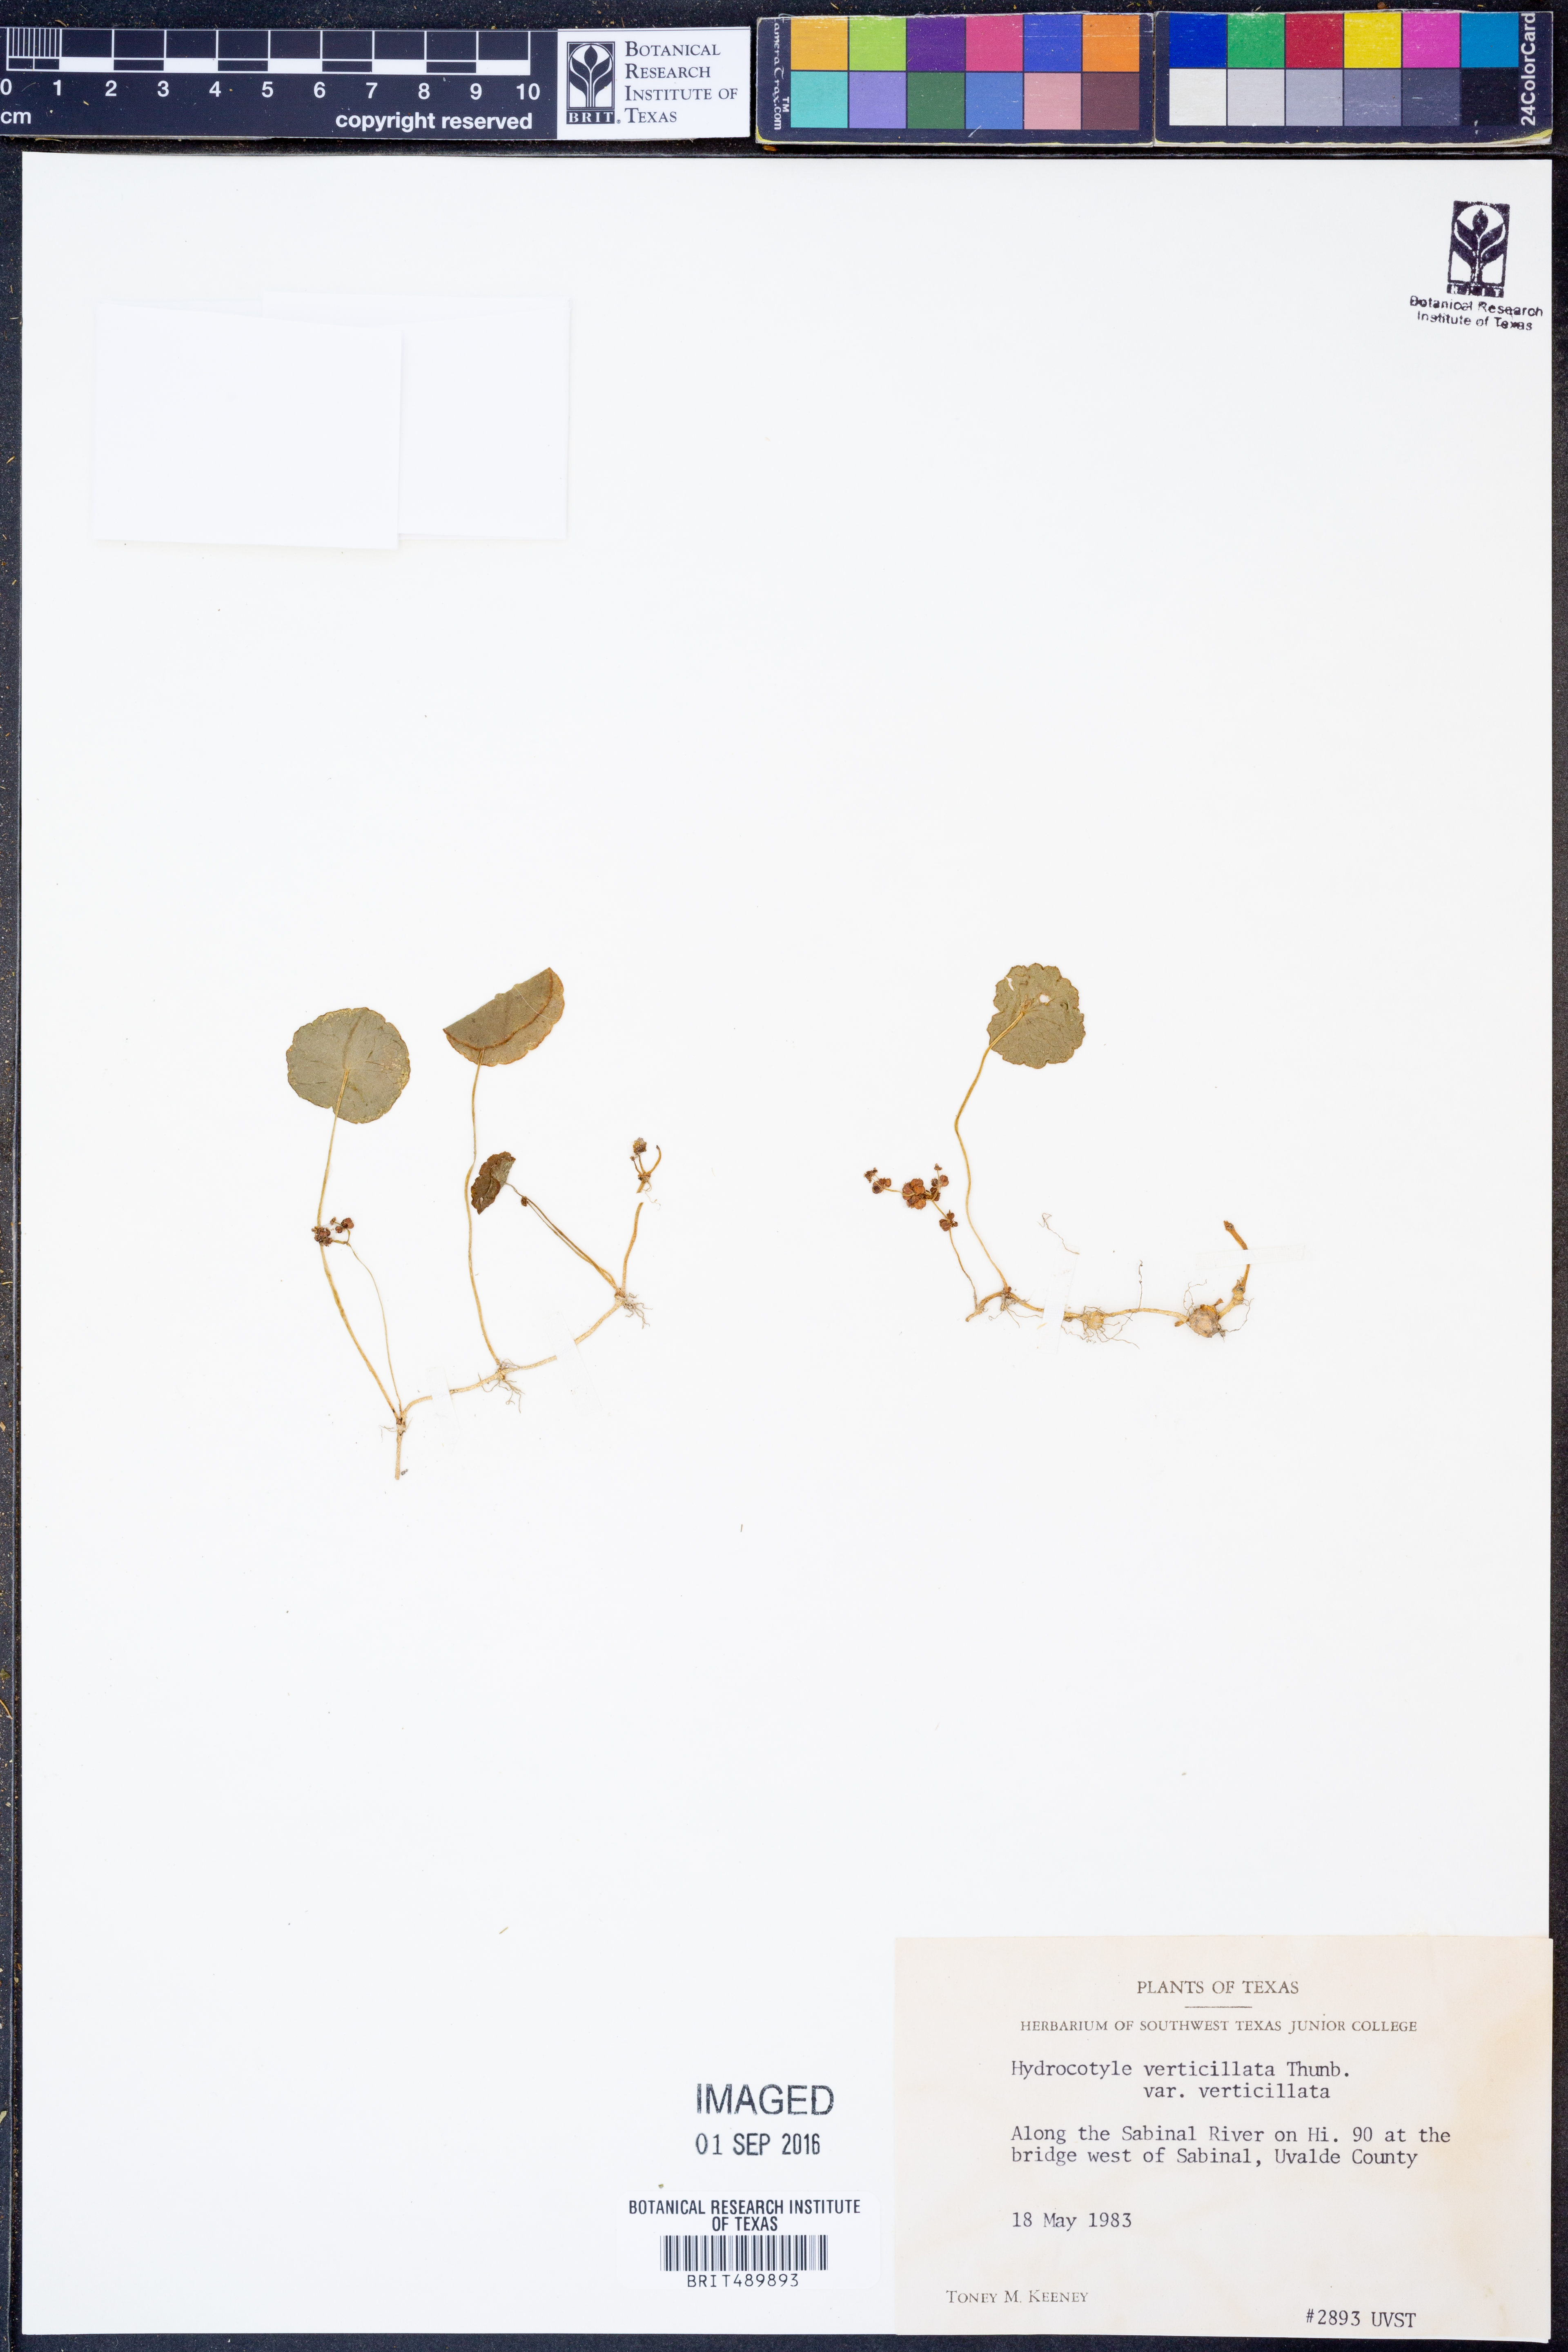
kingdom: Plantae
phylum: Tracheophyta
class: Magnoliopsida
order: Apiales
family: Araliaceae
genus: Hydrocotyle
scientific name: Hydrocotyle verticillata
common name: Whorled marshpennywort
